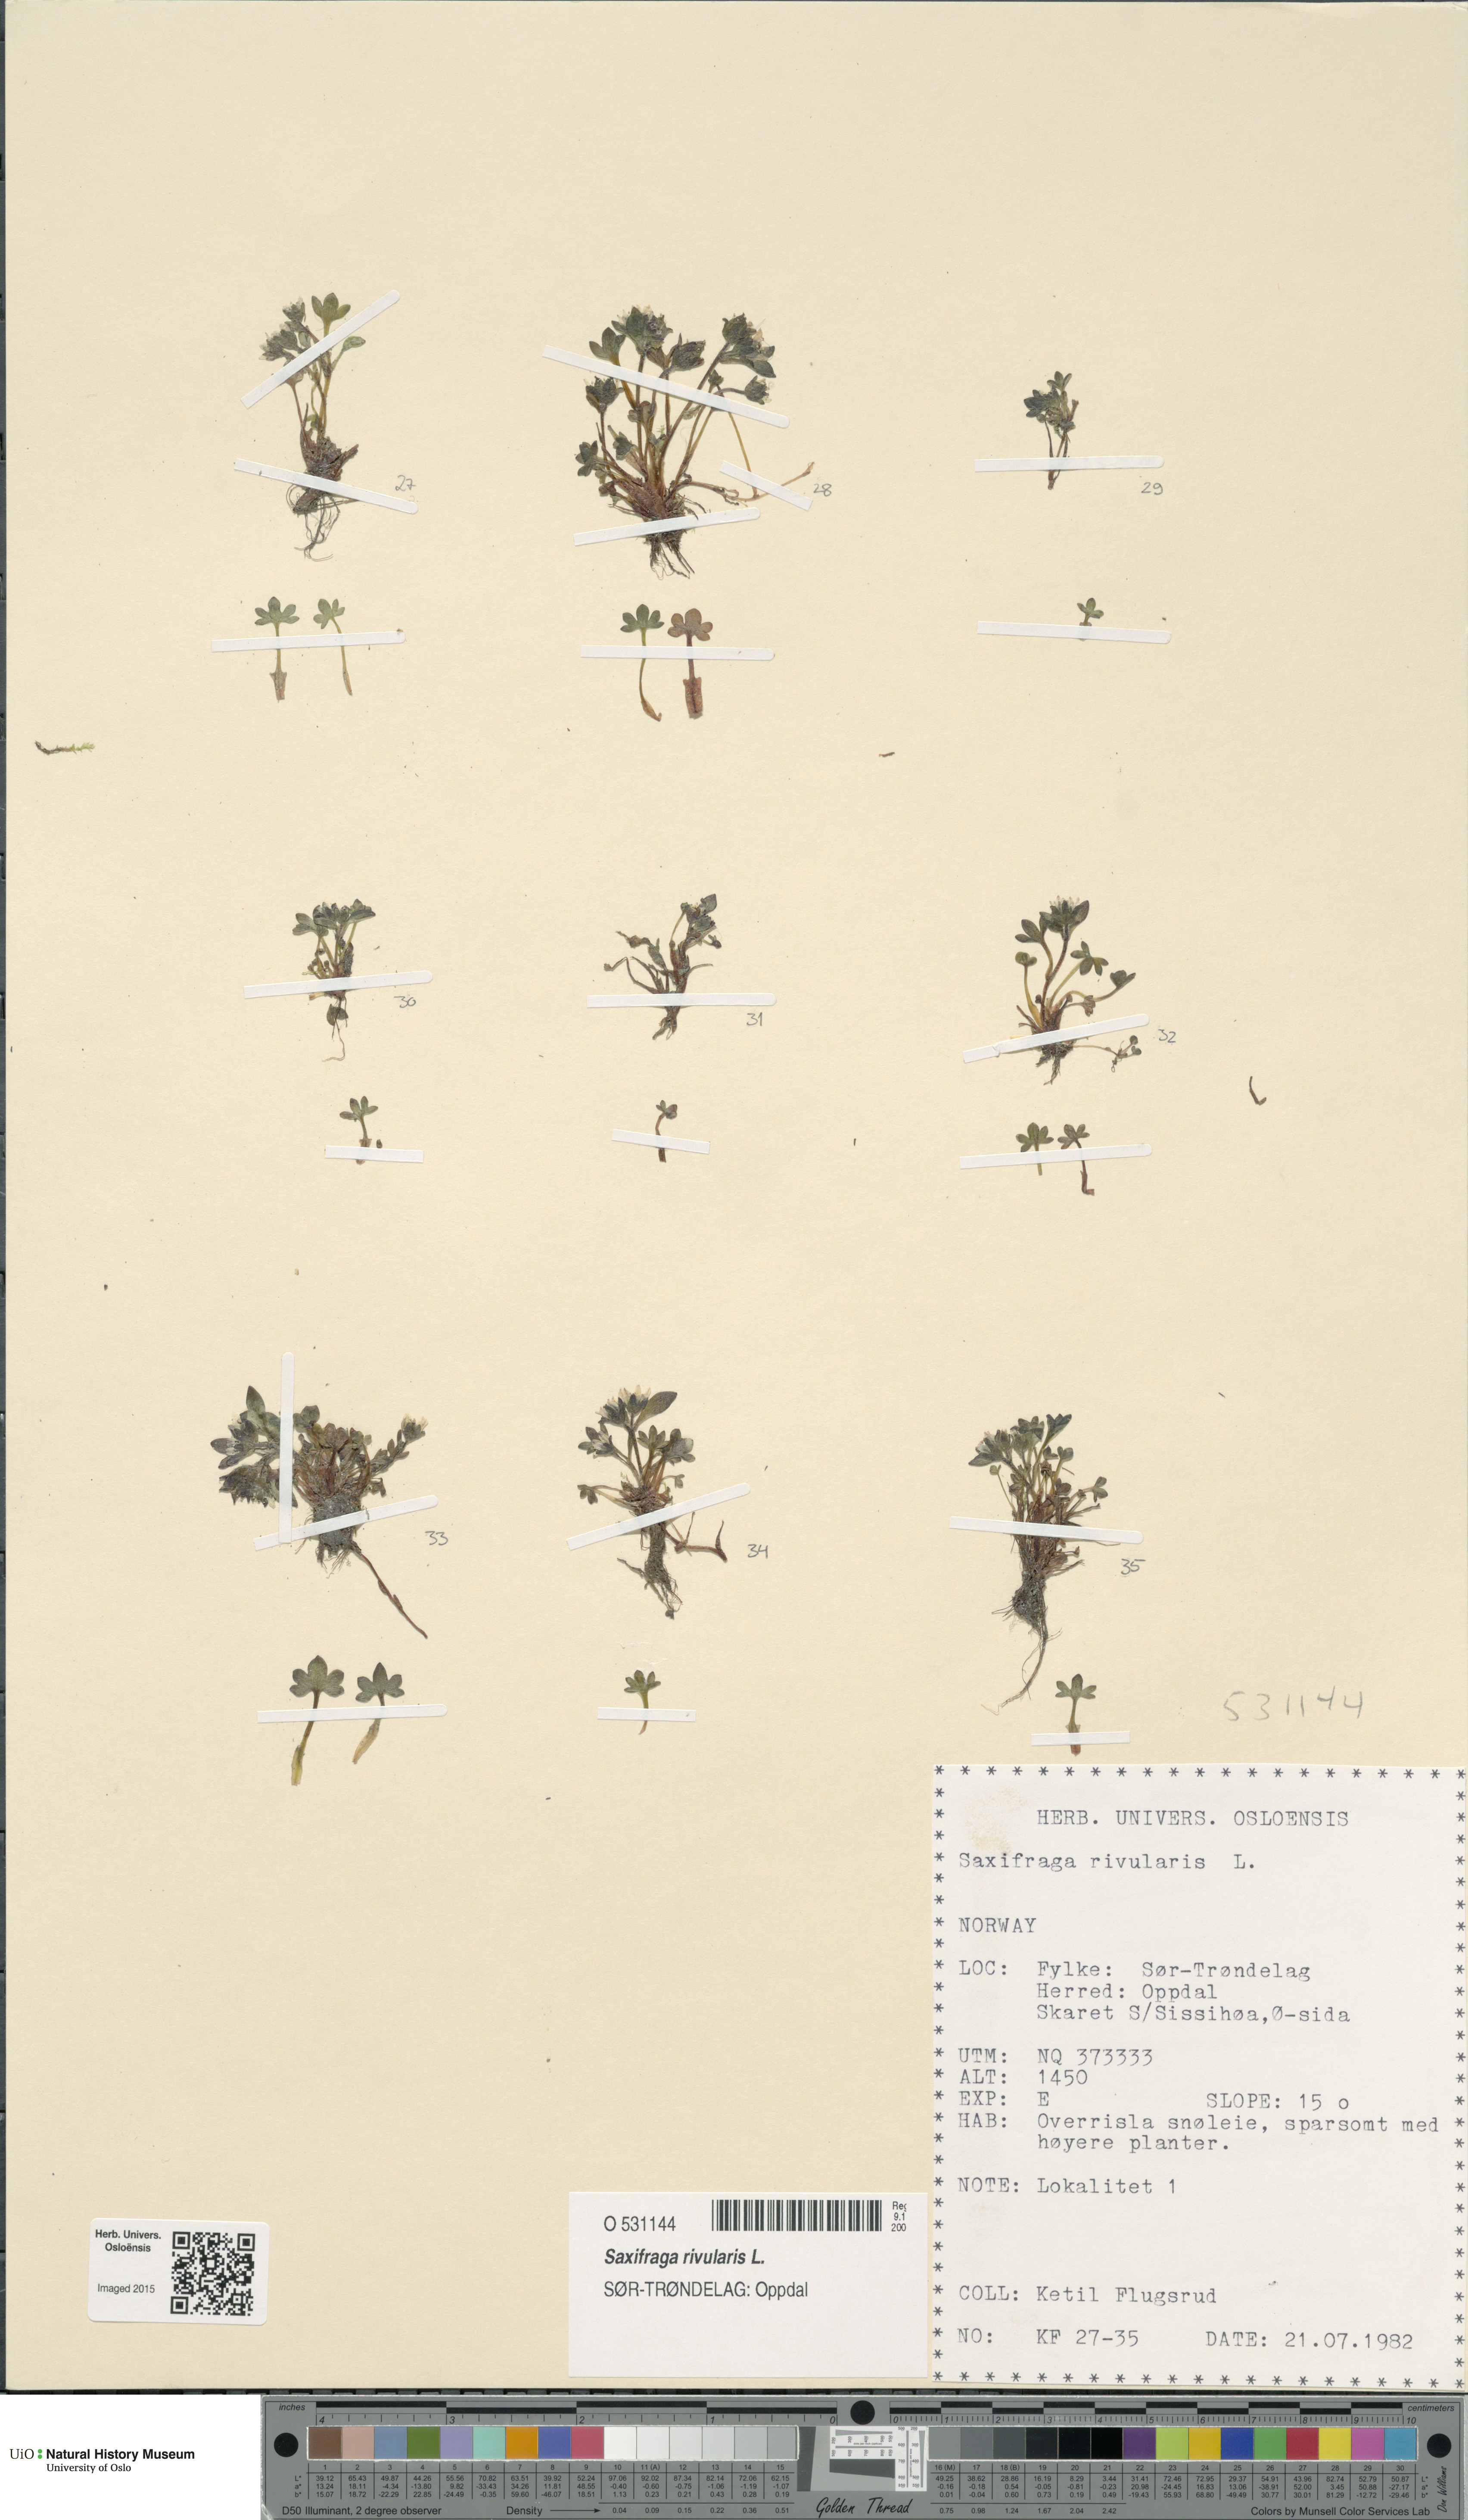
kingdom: Plantae
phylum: Tracheophyta
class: Magnoliopsida
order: Saxifragales
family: Saxifragaceae
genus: Saxifraga
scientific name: Saxifraga rivularis
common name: Highland saxifrage
